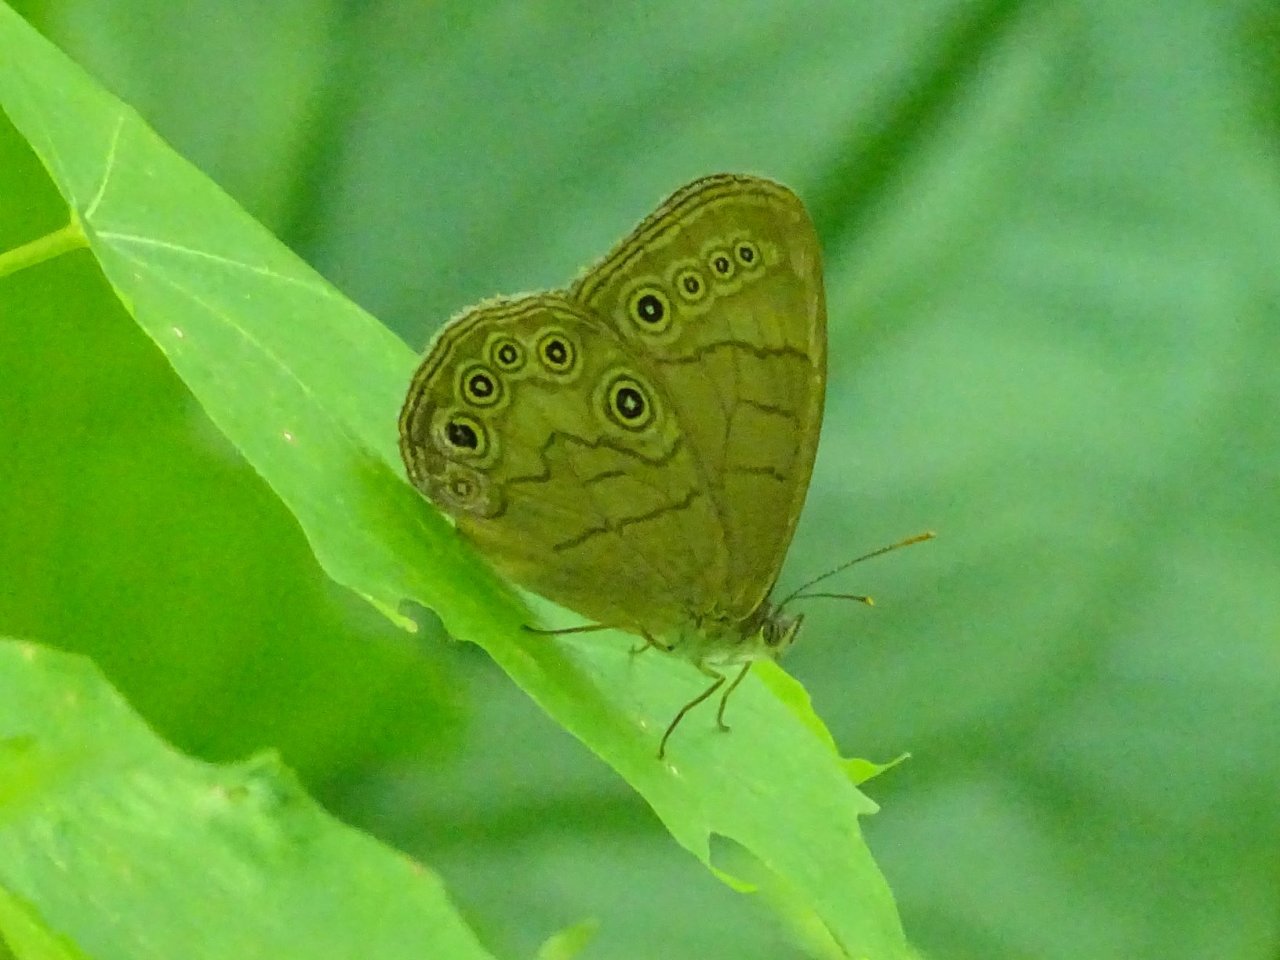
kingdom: Animalia
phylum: Arthropoda
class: Insecta
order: Lepidoptera
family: Nymphalidae
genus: Lethe
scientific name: Lethe eurydice
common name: Appalachian Eyed Brown
